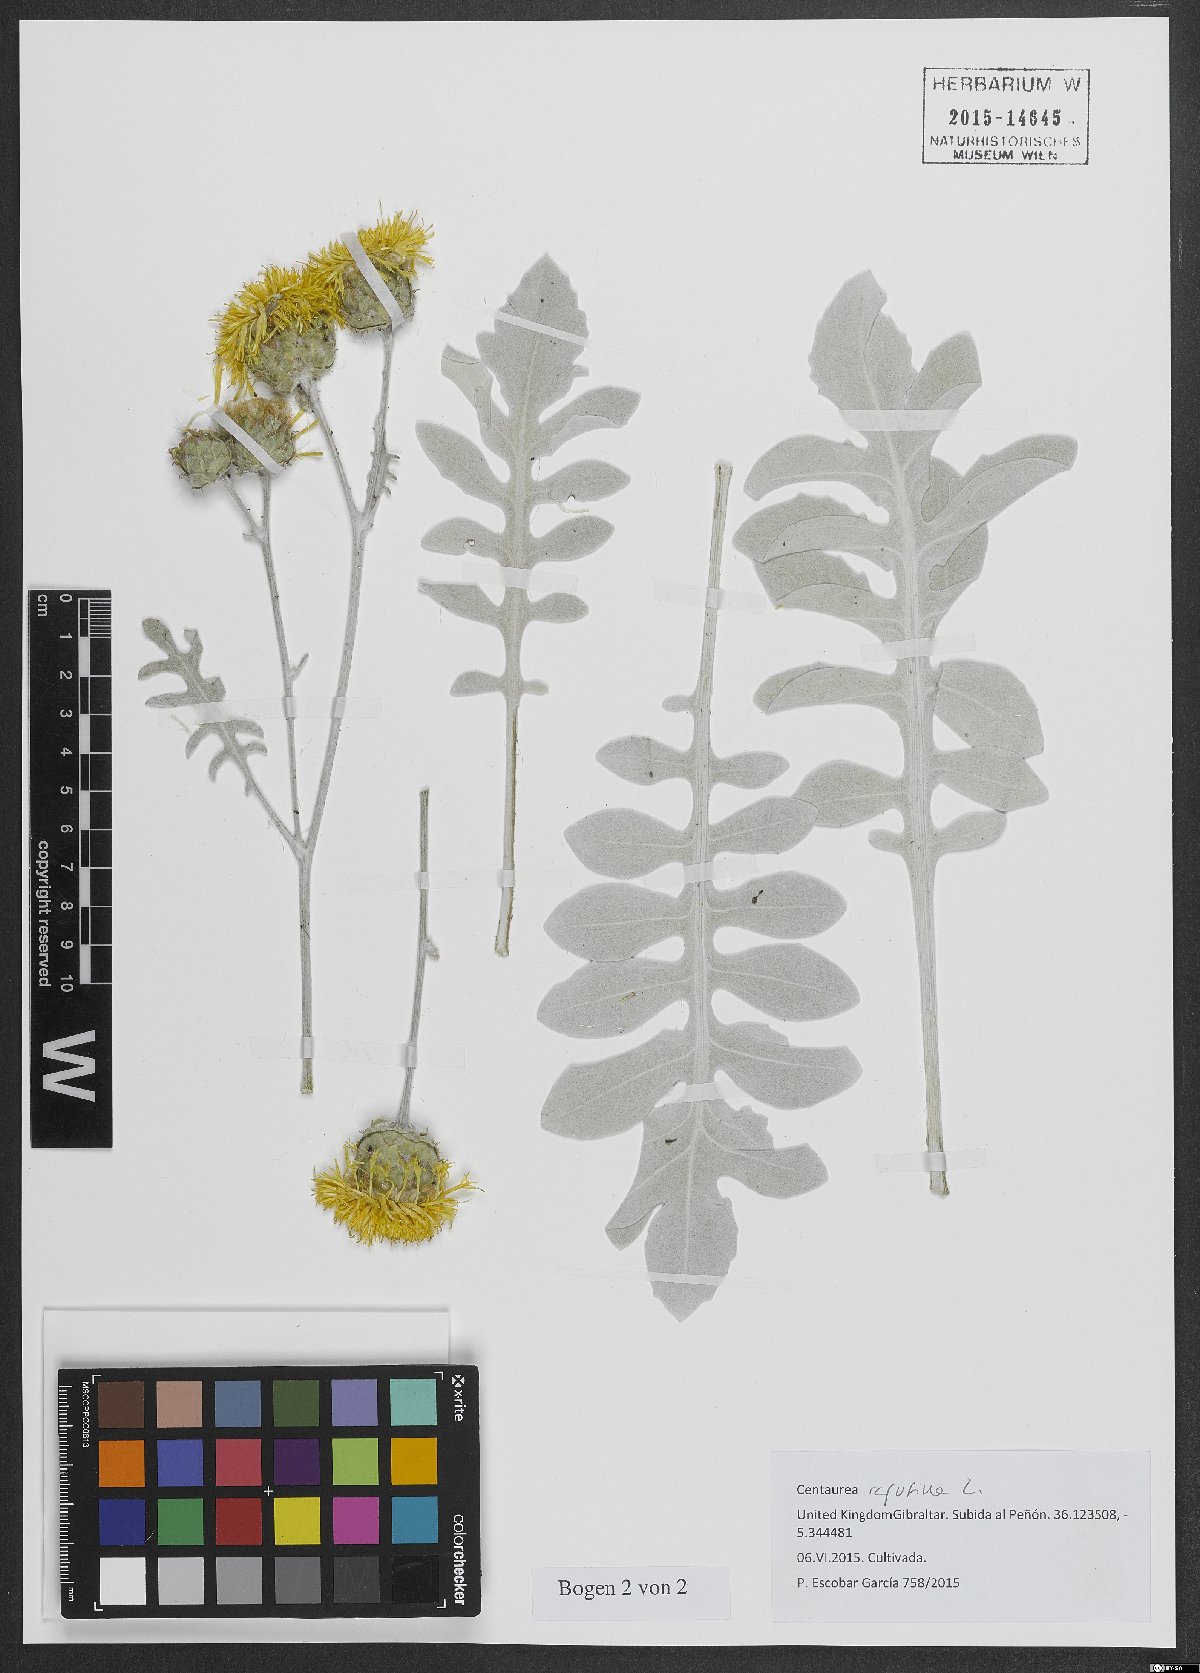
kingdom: Plantae
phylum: Tracheophyta
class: Magnoliopsida
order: Asterales
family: Asteraceae
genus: Centaurea
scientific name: Centaurea ragusina
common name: Dusty-miller
